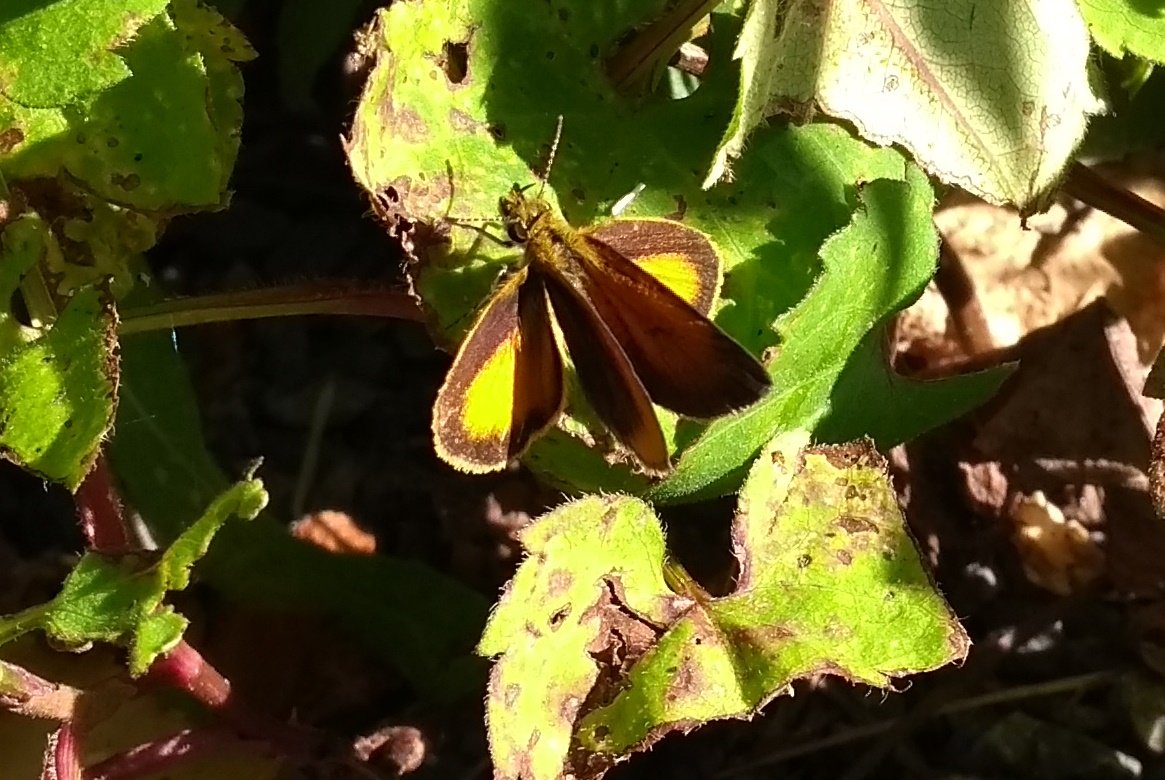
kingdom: Animalia
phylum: Arthropoda
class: Insecta
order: Lepidoptera
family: Hesperiidae
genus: Ancyloxypha
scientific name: Ancyloxypha numitor
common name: Least Skipper
